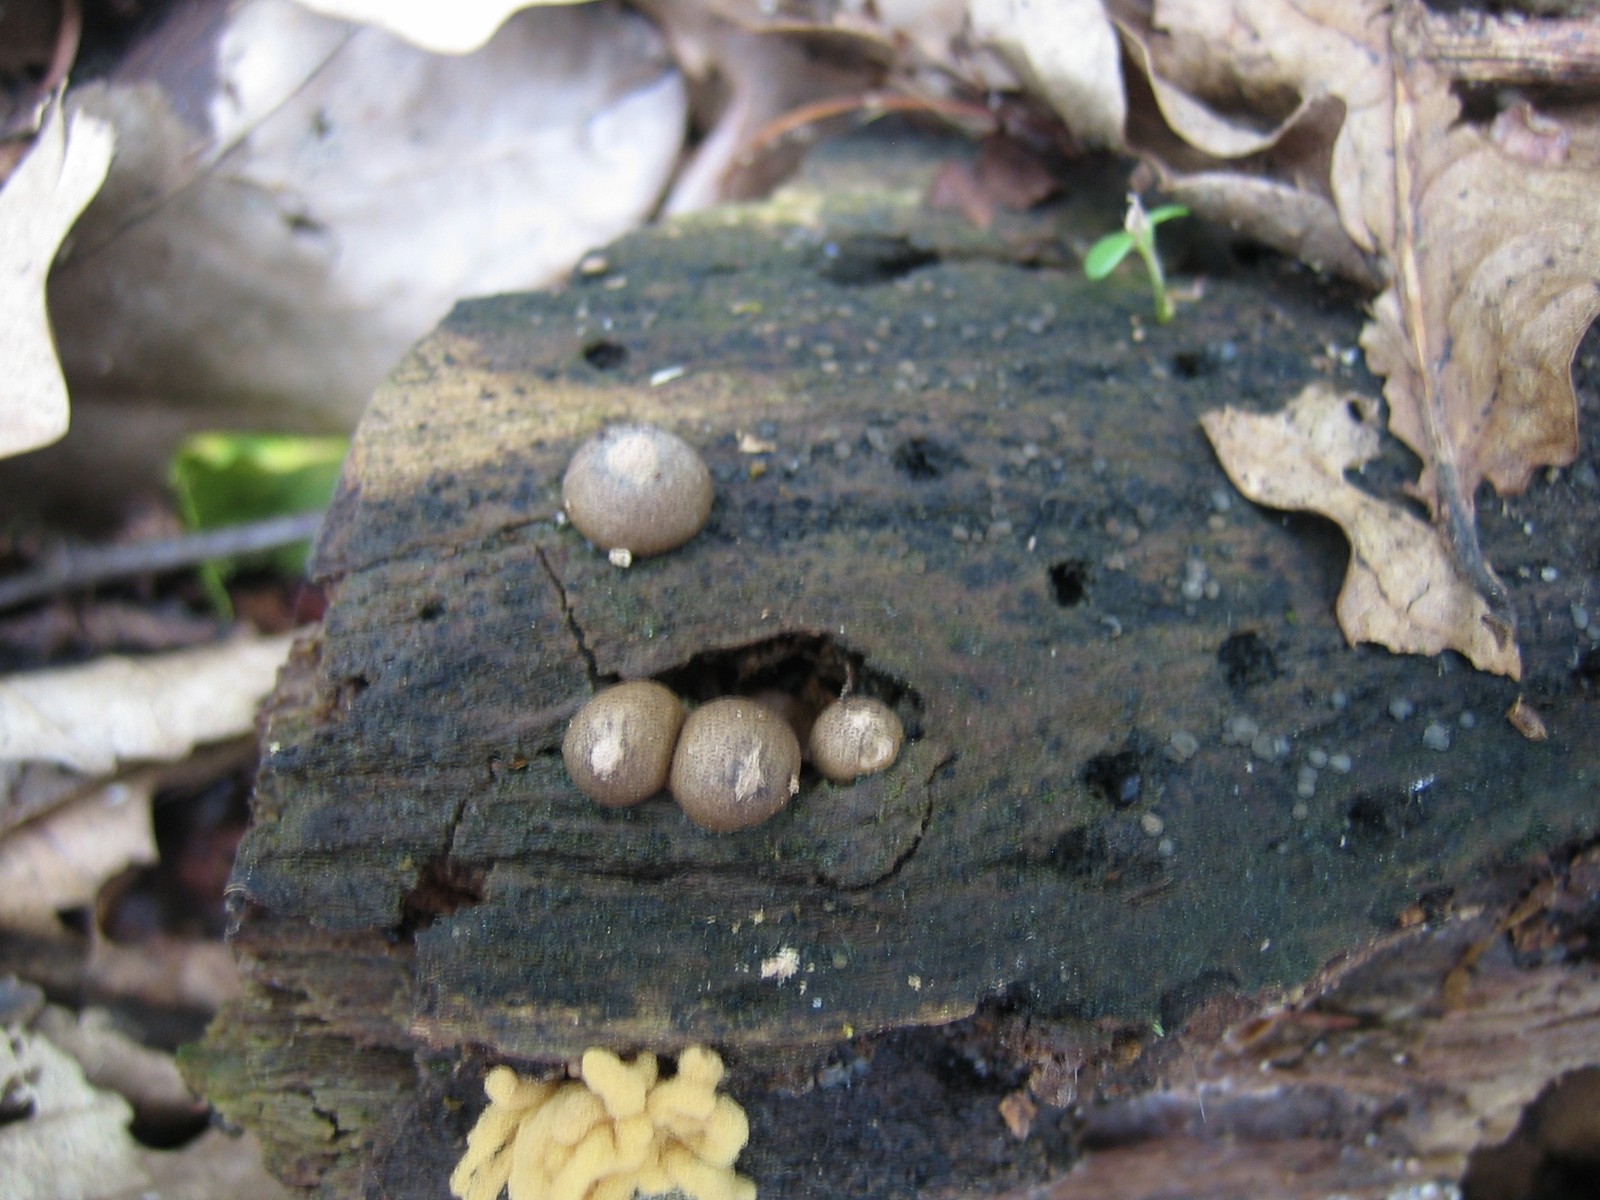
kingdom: Protozoa
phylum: Mycetozoa
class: Myxomycetes
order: Cribrariales
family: Tubiferaceae
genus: Lycogala
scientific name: Lycogala epidendrum
